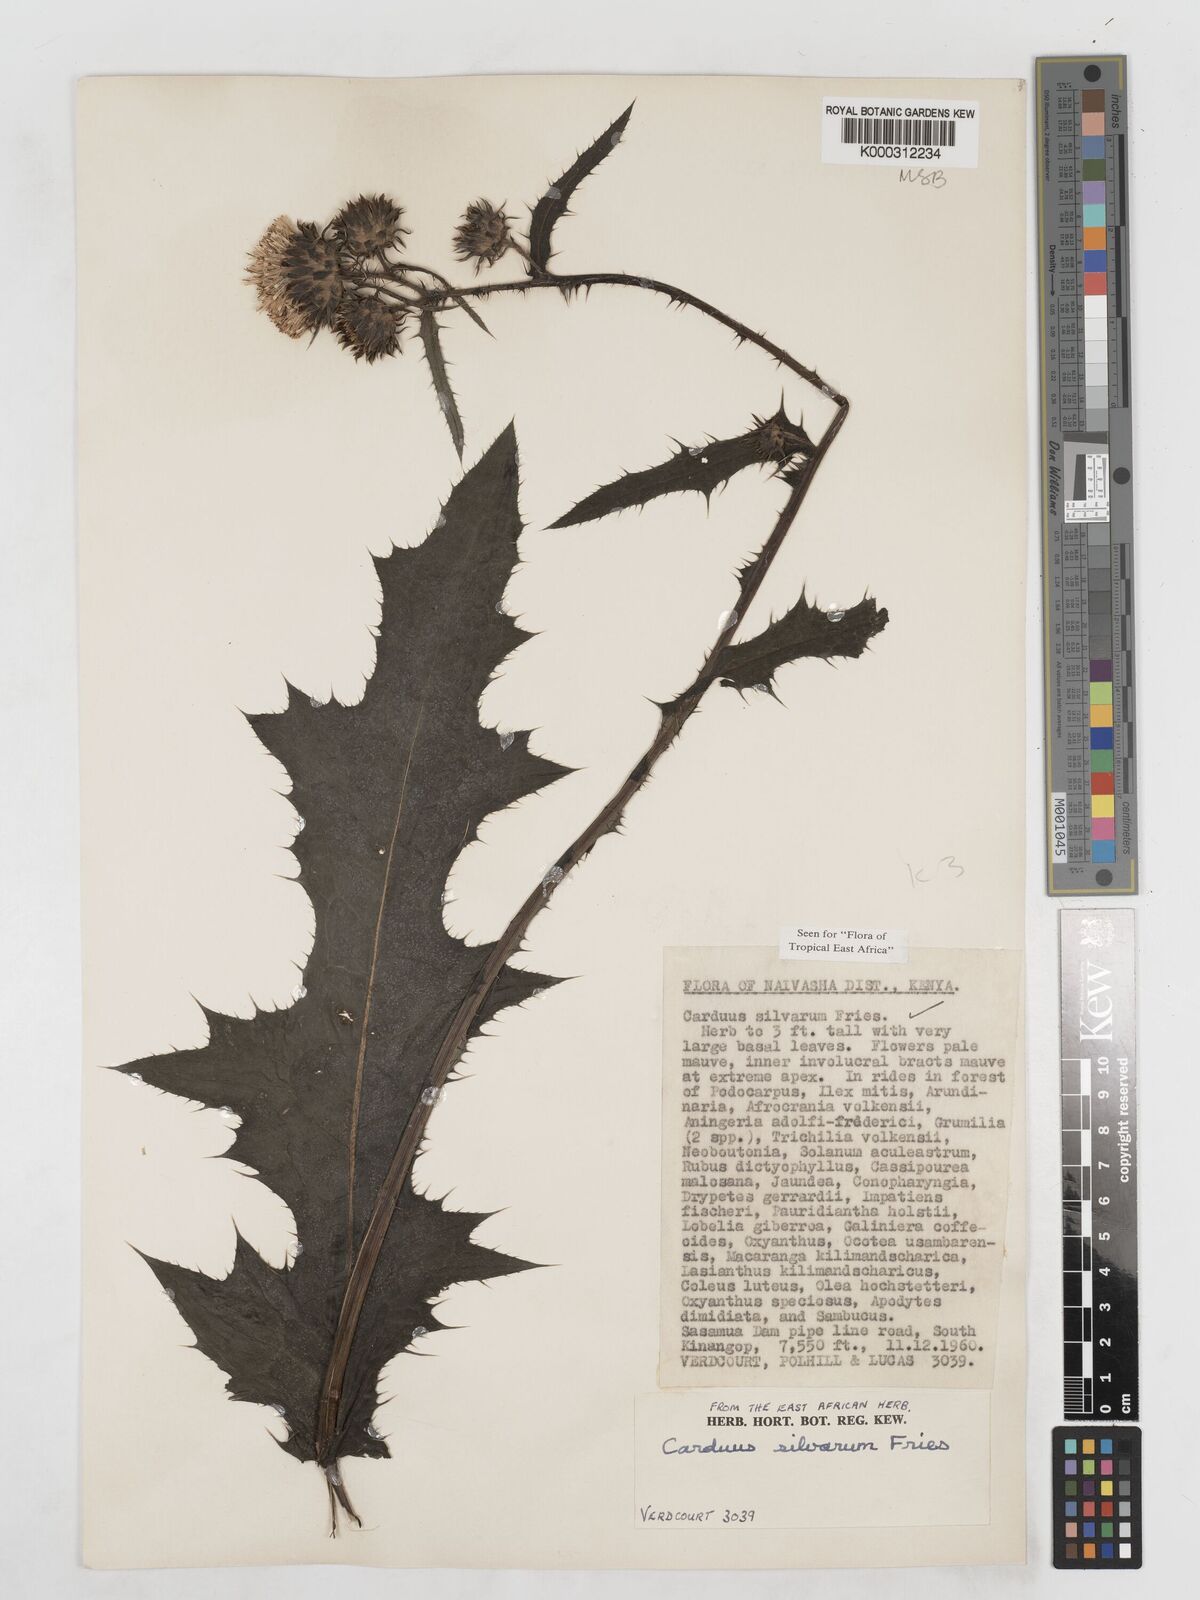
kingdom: Plantae
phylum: Tracheophyta
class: Magnoliopsida
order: Asterales
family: Asteraceae
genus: Carduus
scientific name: Carduus silvarum
